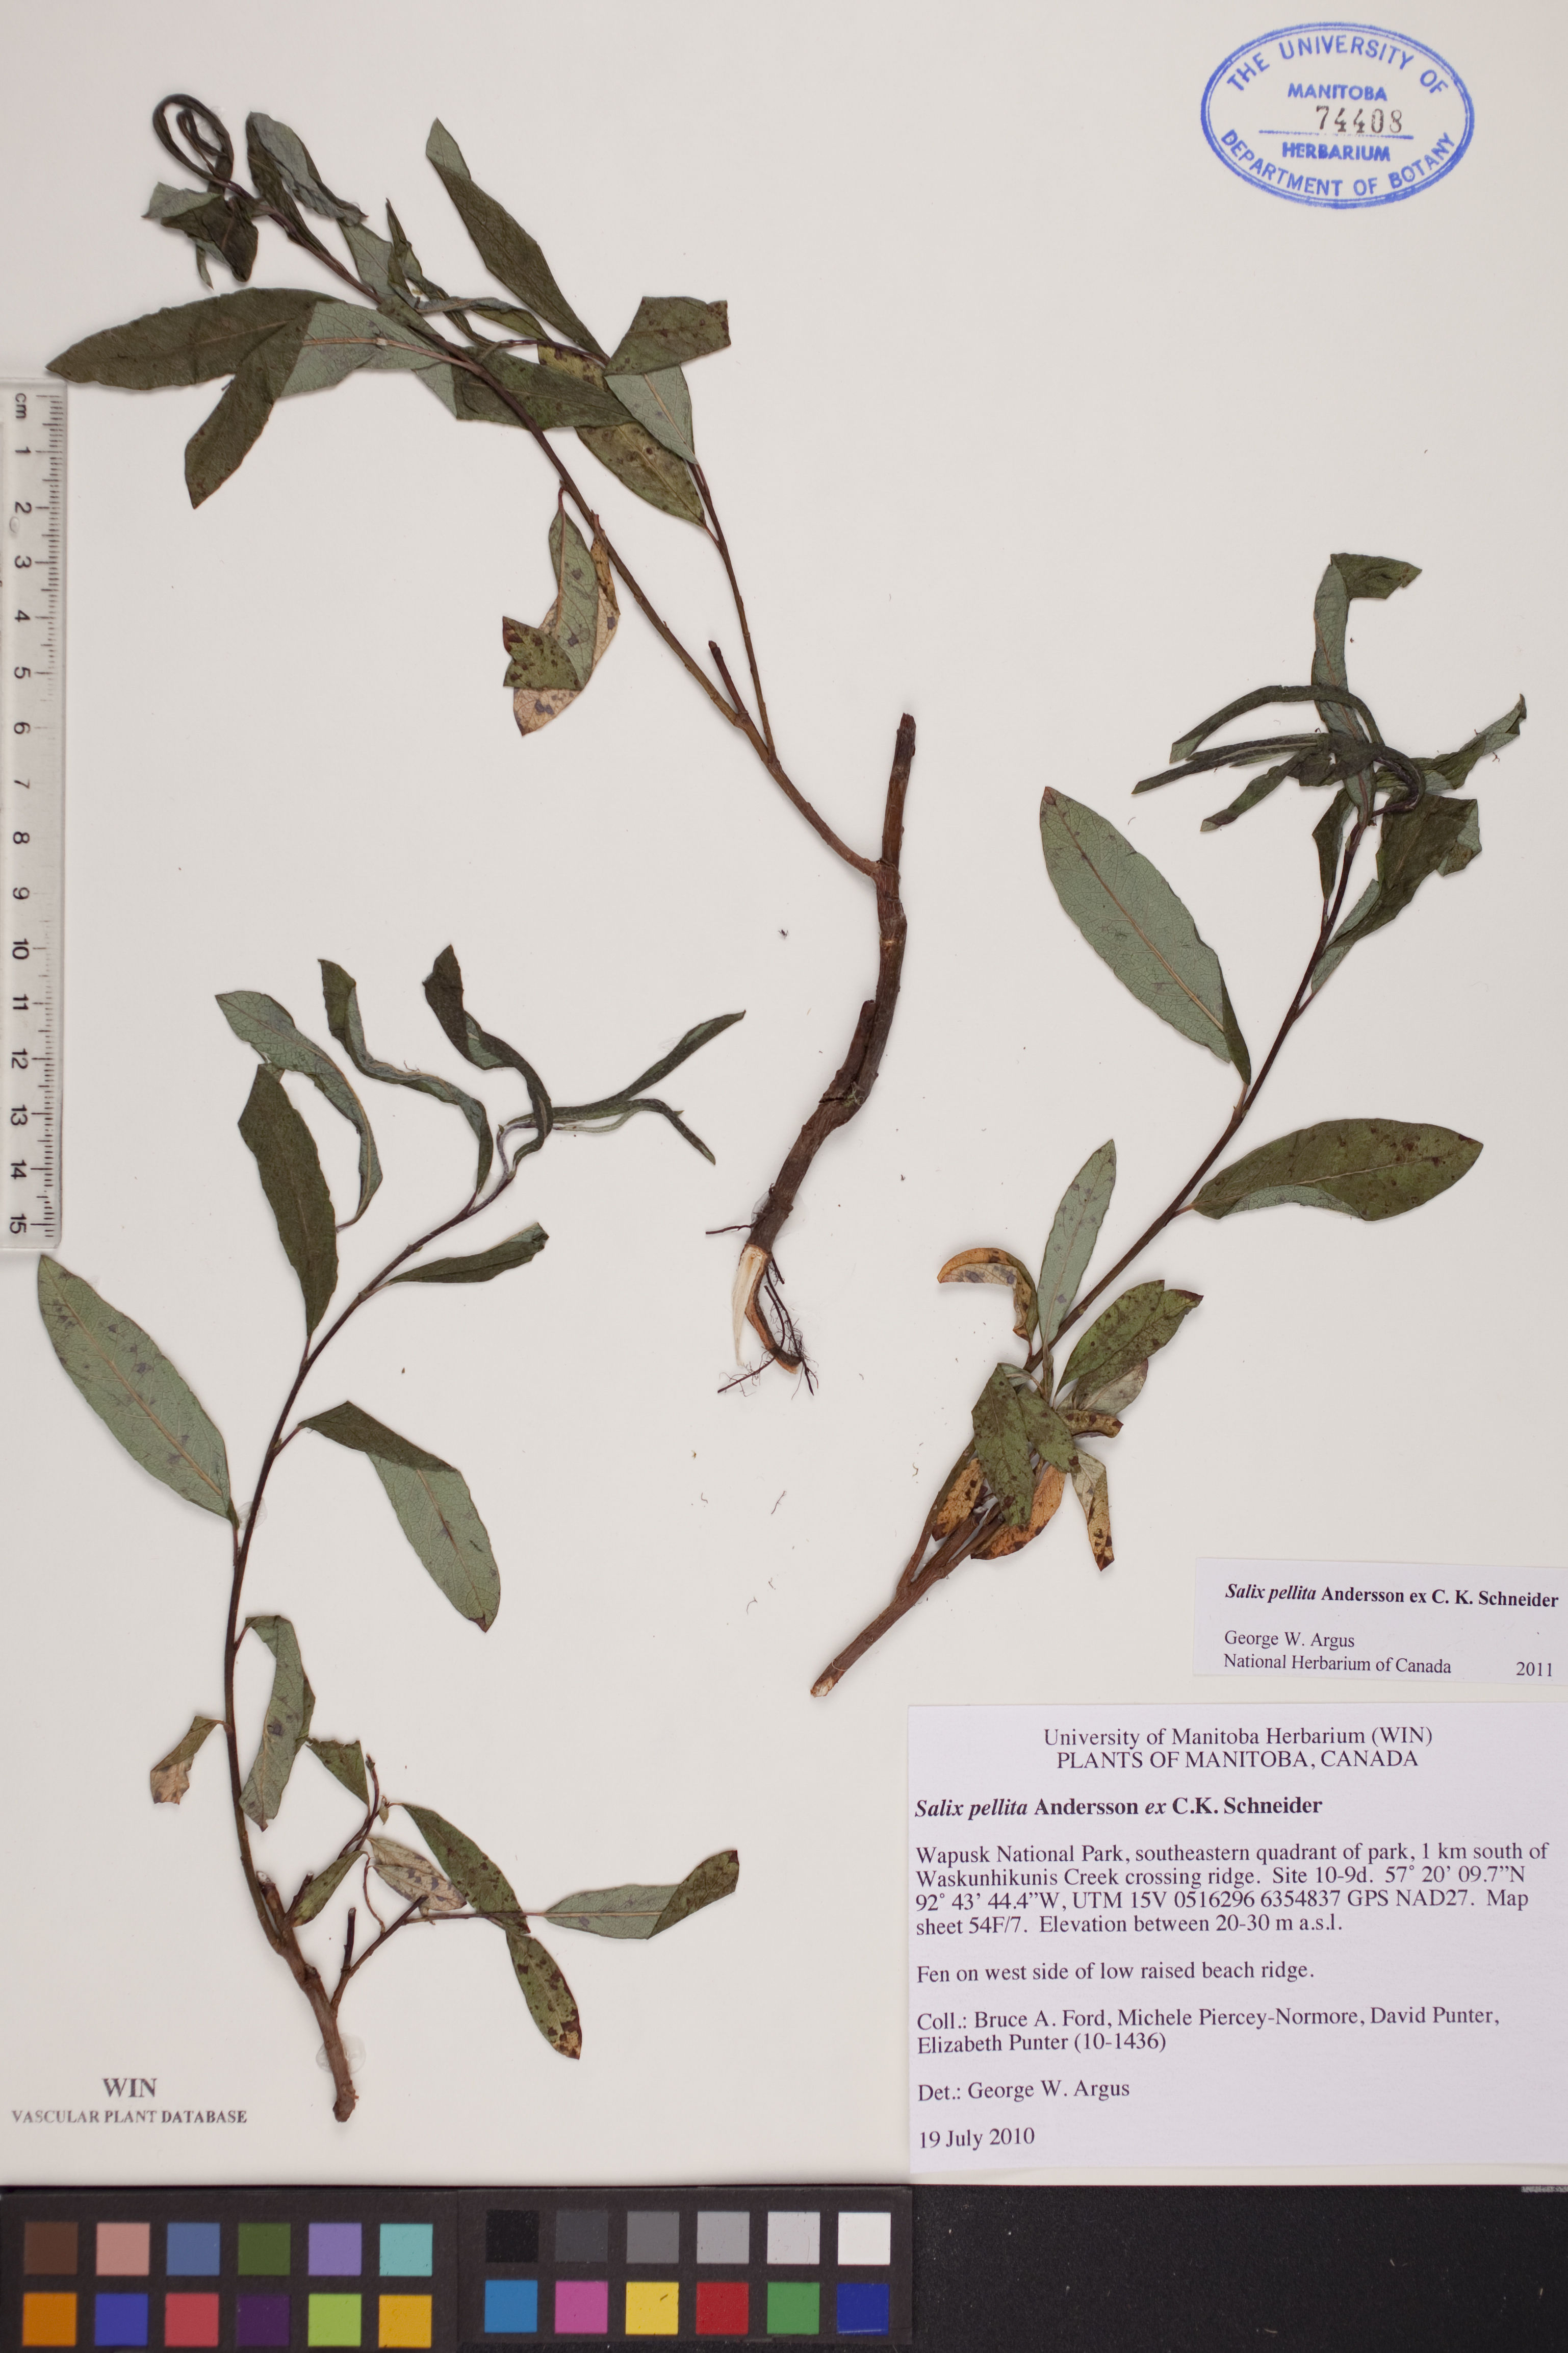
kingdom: Plantae
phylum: Tracheophyta
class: Magnoliopsida
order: Malpighiales
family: Salicaceae
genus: Salix
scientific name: Salix pellita
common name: Satiny willow
